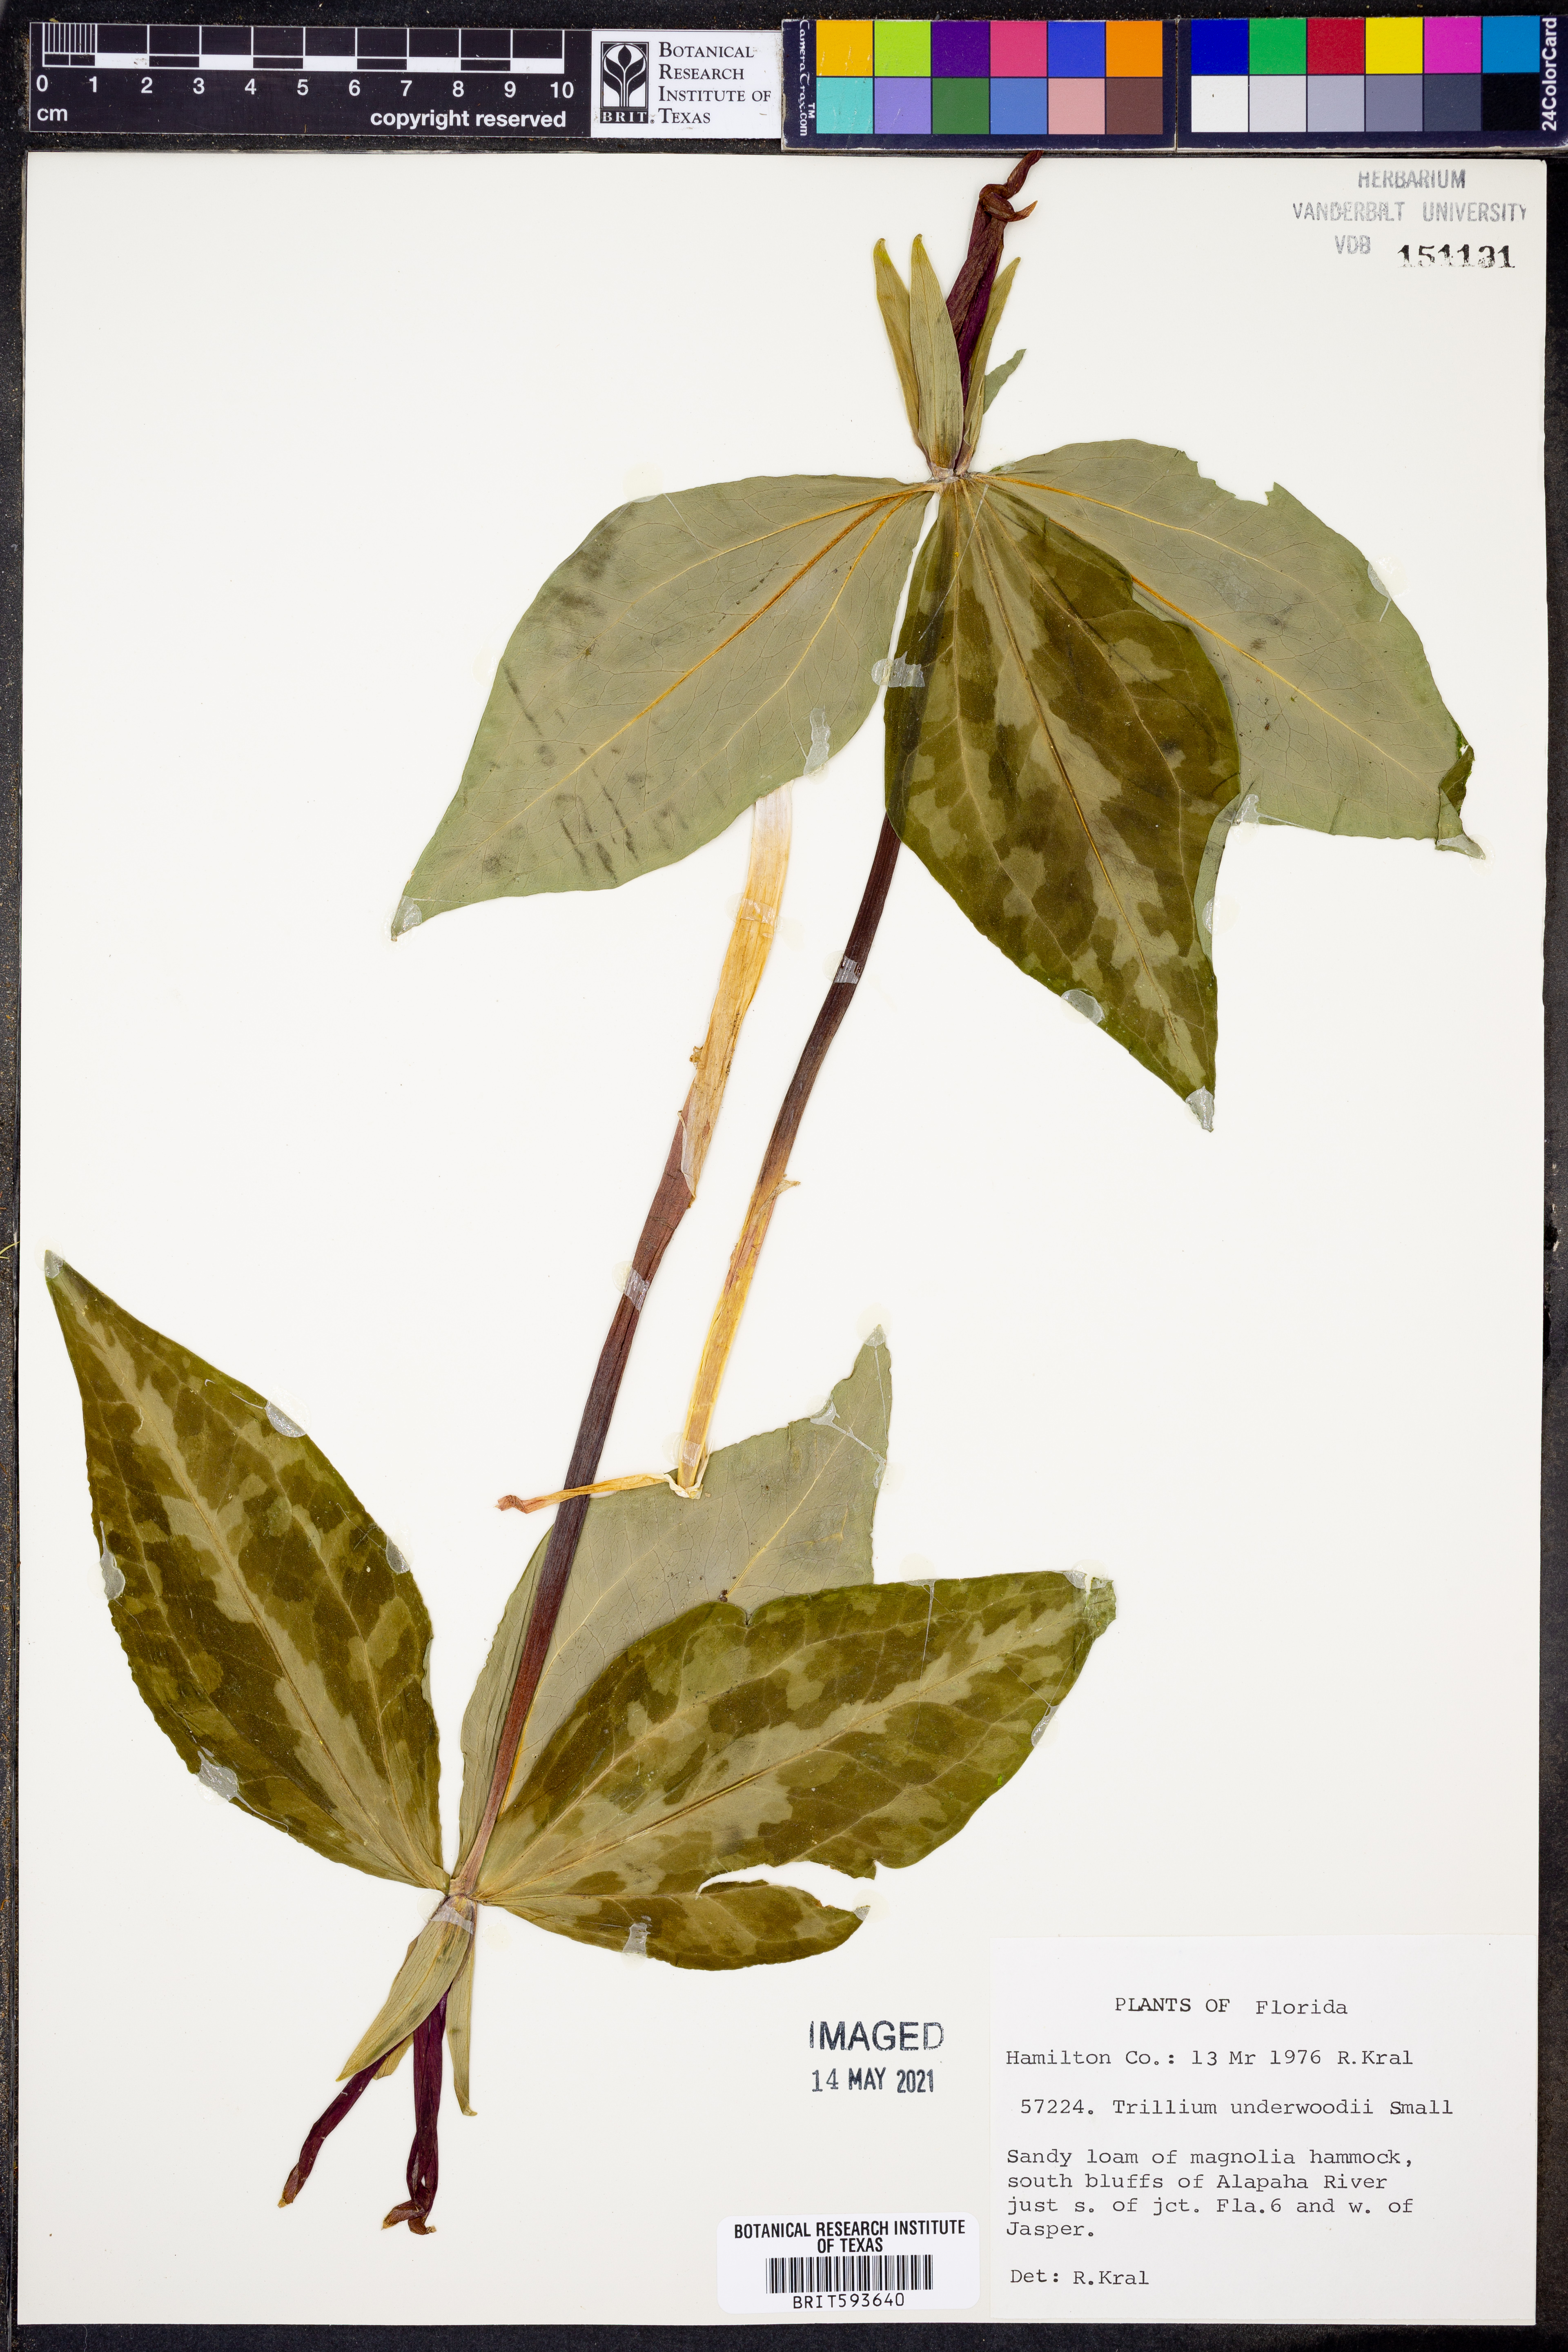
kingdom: Plantae
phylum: Tracheophyta
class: Liliopsida
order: Liliales
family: Melanthiaceae
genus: Trillium
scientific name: Trillium underwoodii
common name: Longbract wakerobin
